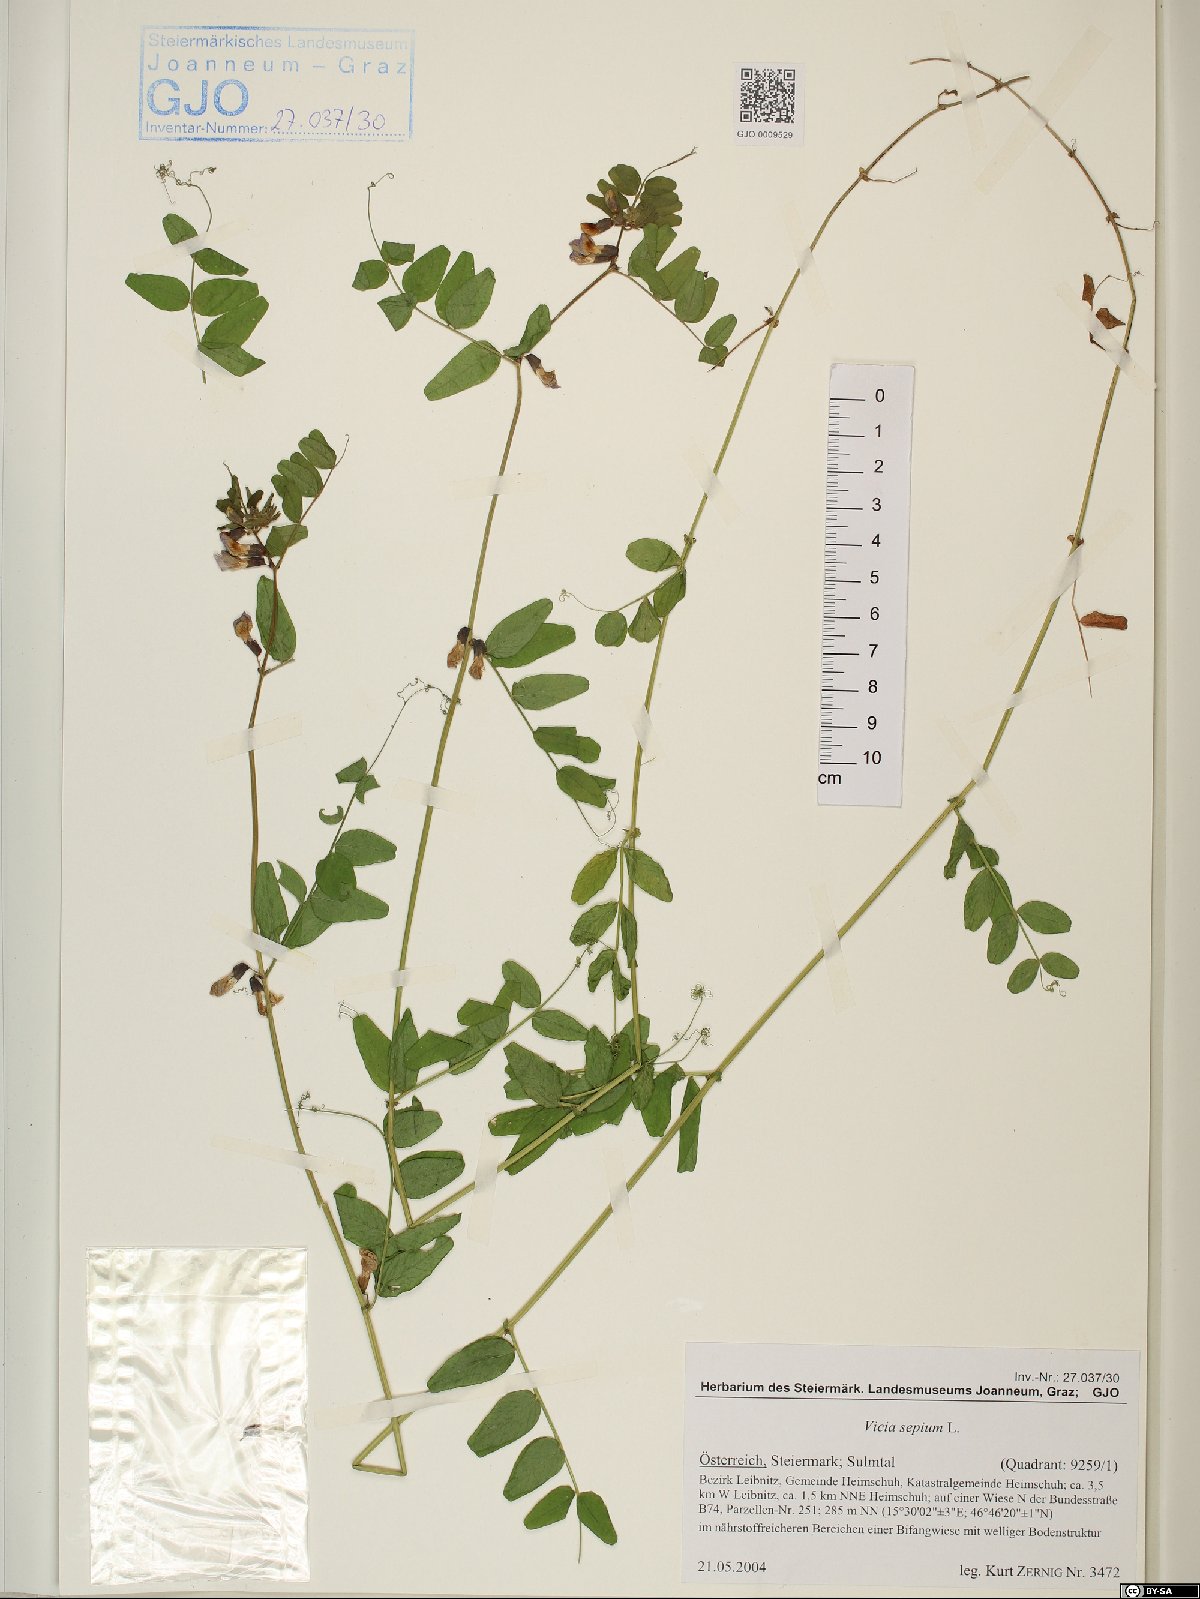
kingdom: Plantae
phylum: Tracheophyta
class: Magnoliopsida
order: Fabales
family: Fabaceae
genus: Vicia
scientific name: Vicia sepium
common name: Bush vetch
